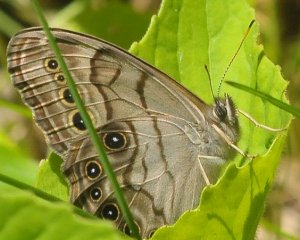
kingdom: Animalia
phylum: Arthropoda
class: Insecta
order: Lepidoptera
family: Nymphalidae
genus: Lethe
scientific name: Lethe anthedon
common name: Northern Pearly-Eye
